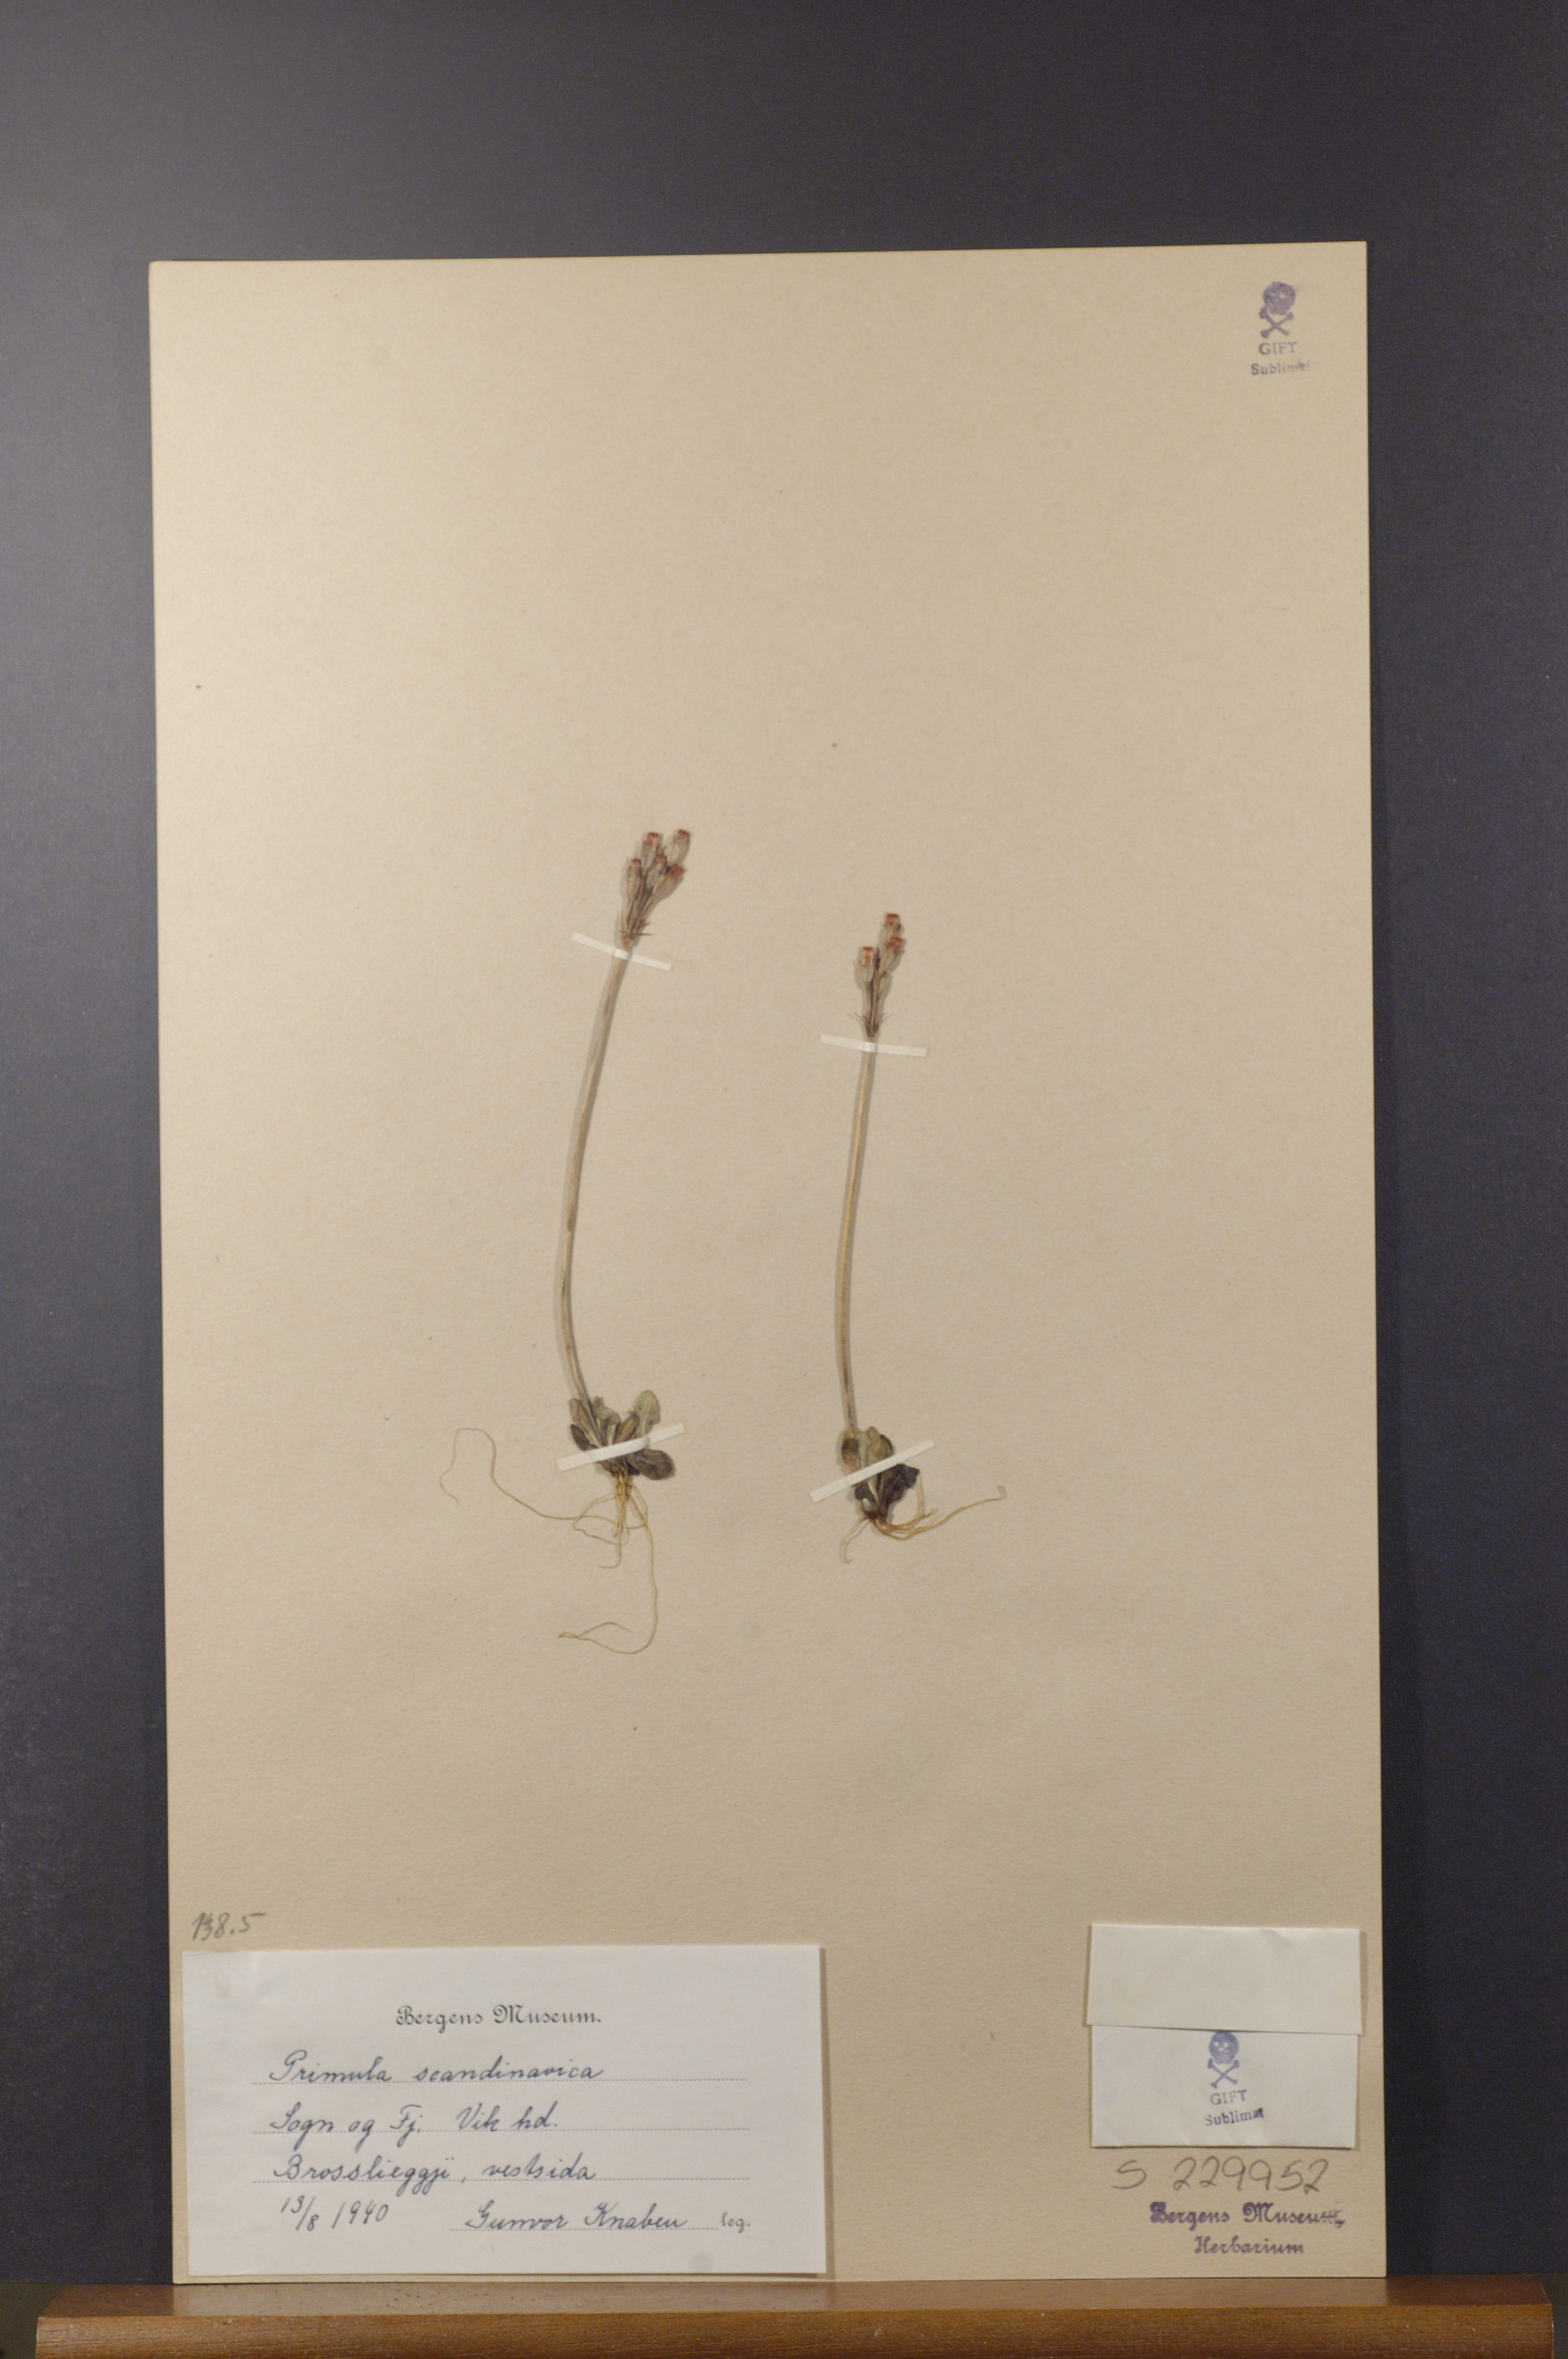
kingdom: Plantae
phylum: Tracheophyta
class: Magnoliopsida
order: Ericales
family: Primulaceae
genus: Primula
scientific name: Primula scandinavica
